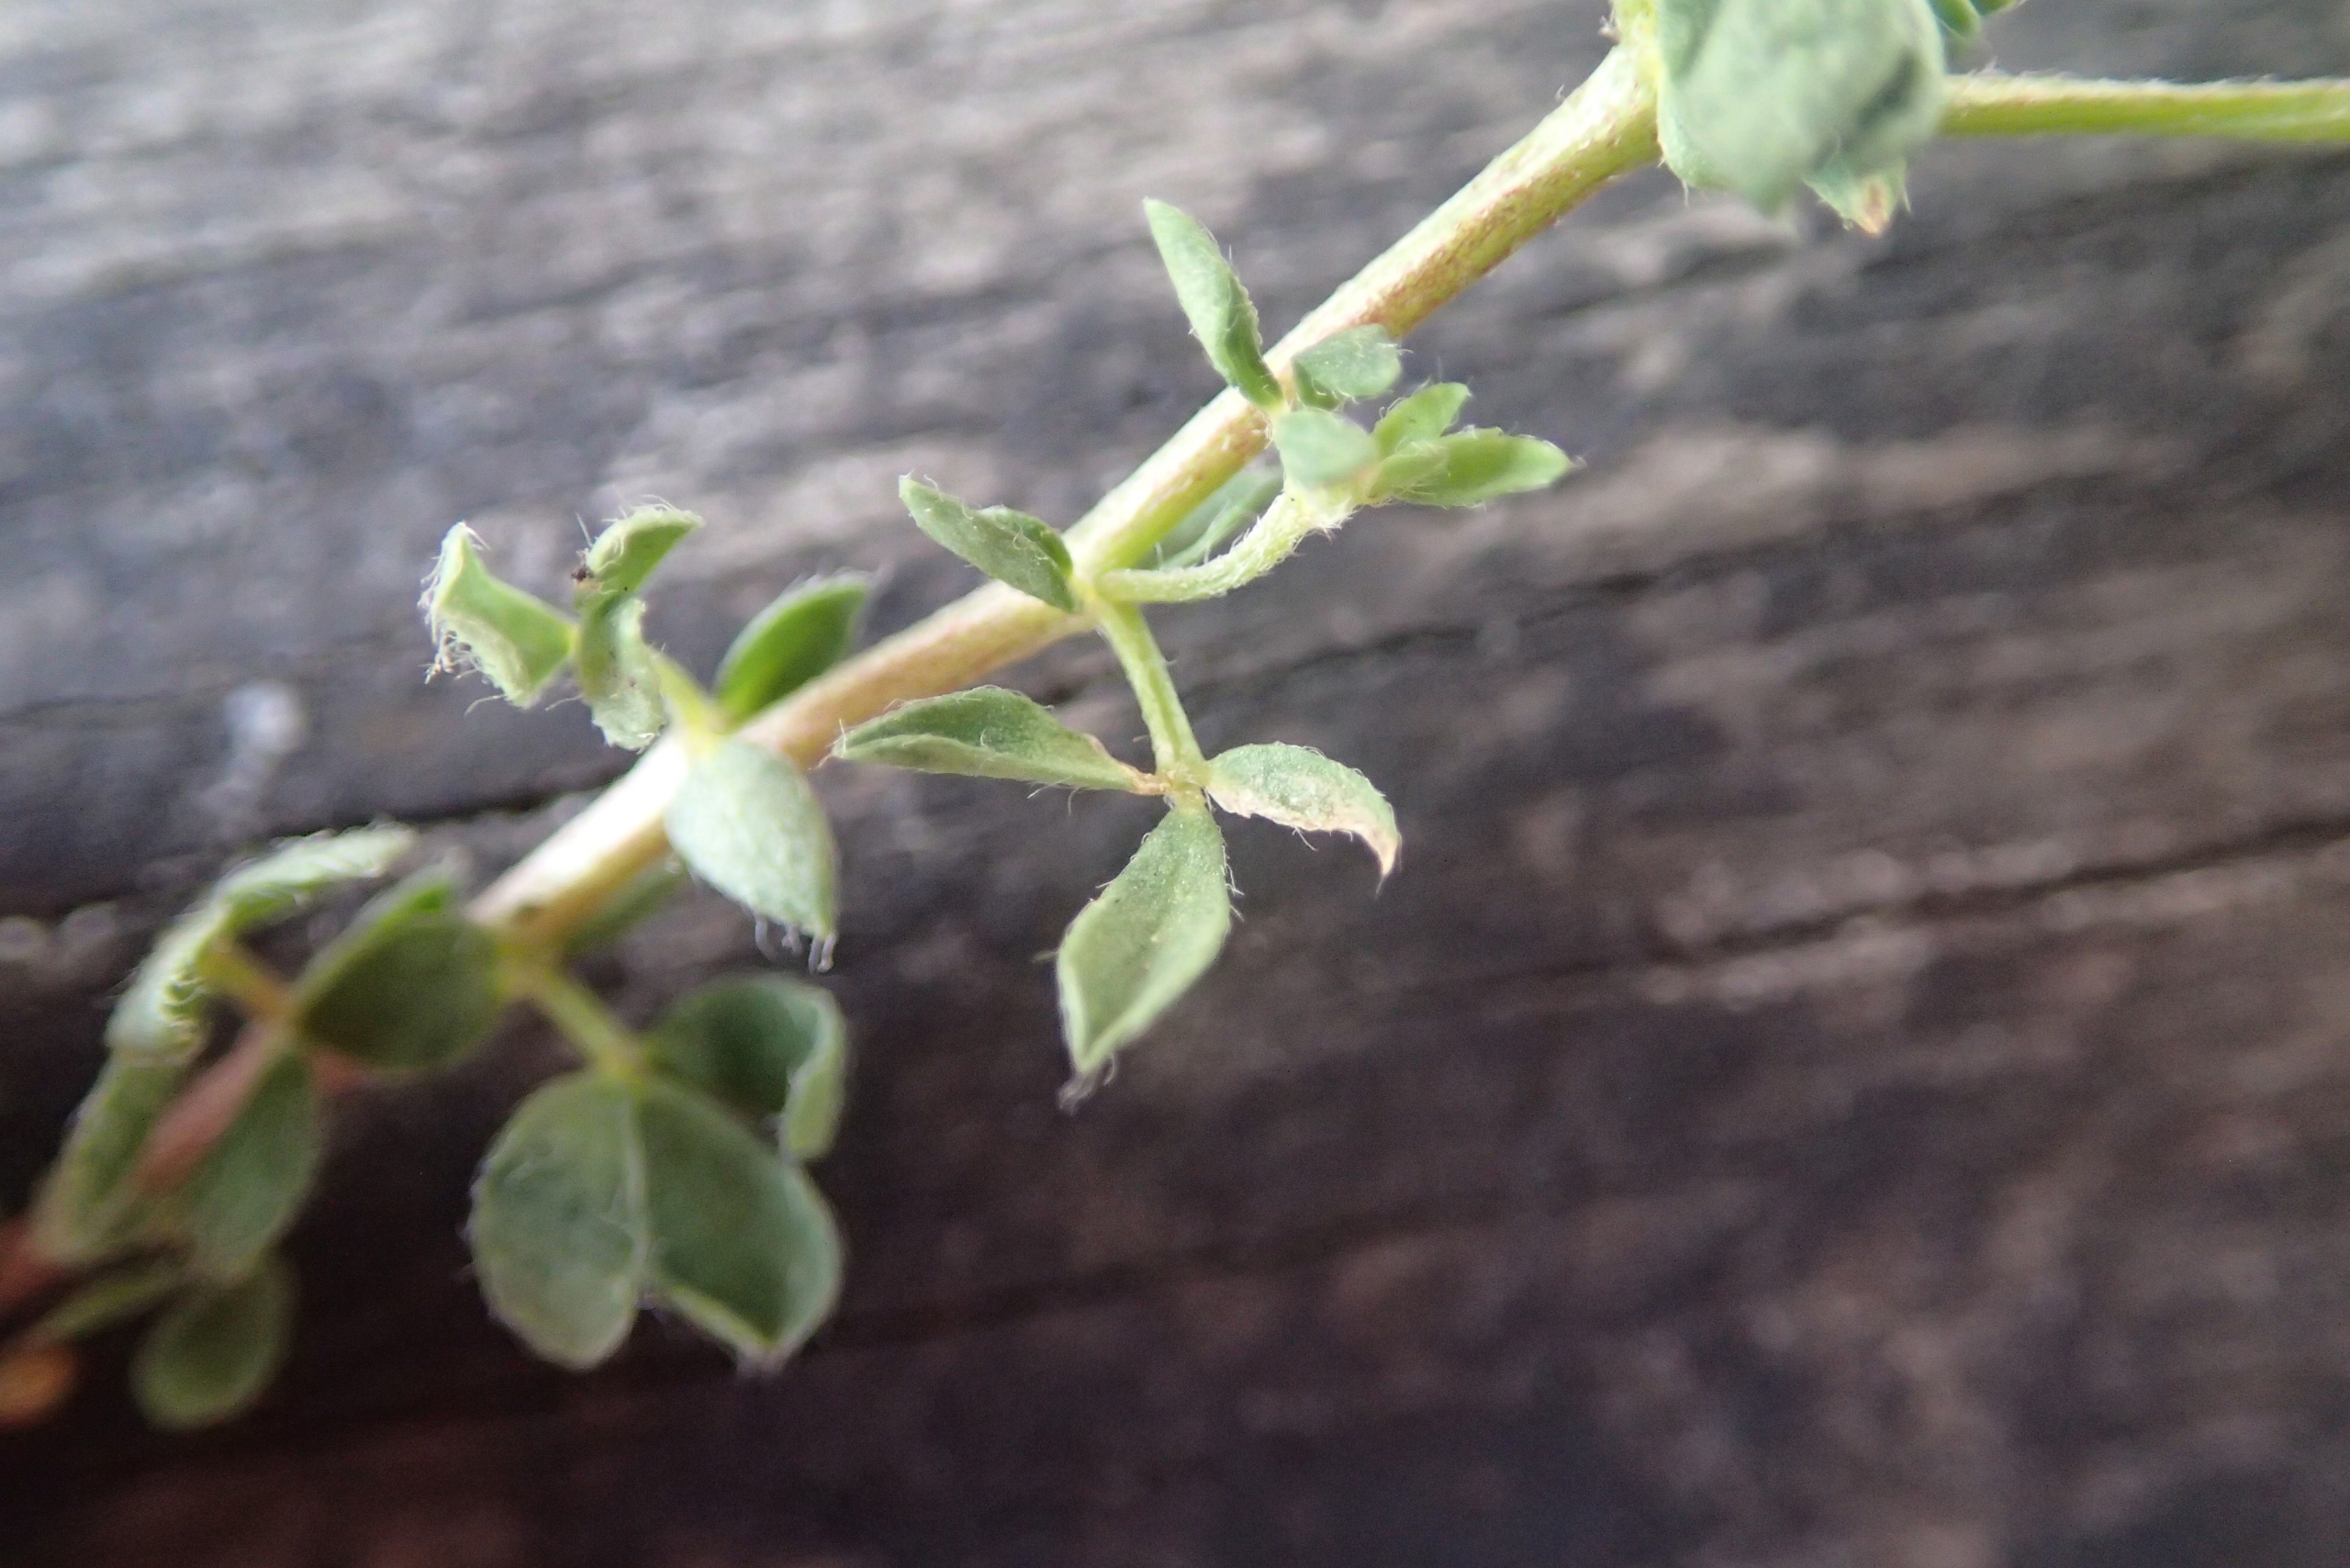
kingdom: Plantae
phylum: Tracheophyta
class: Magnoliopsida
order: Fabales
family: Fabaceae
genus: Lotus
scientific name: Lotus corniculatus
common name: Almindelig kællingetand
